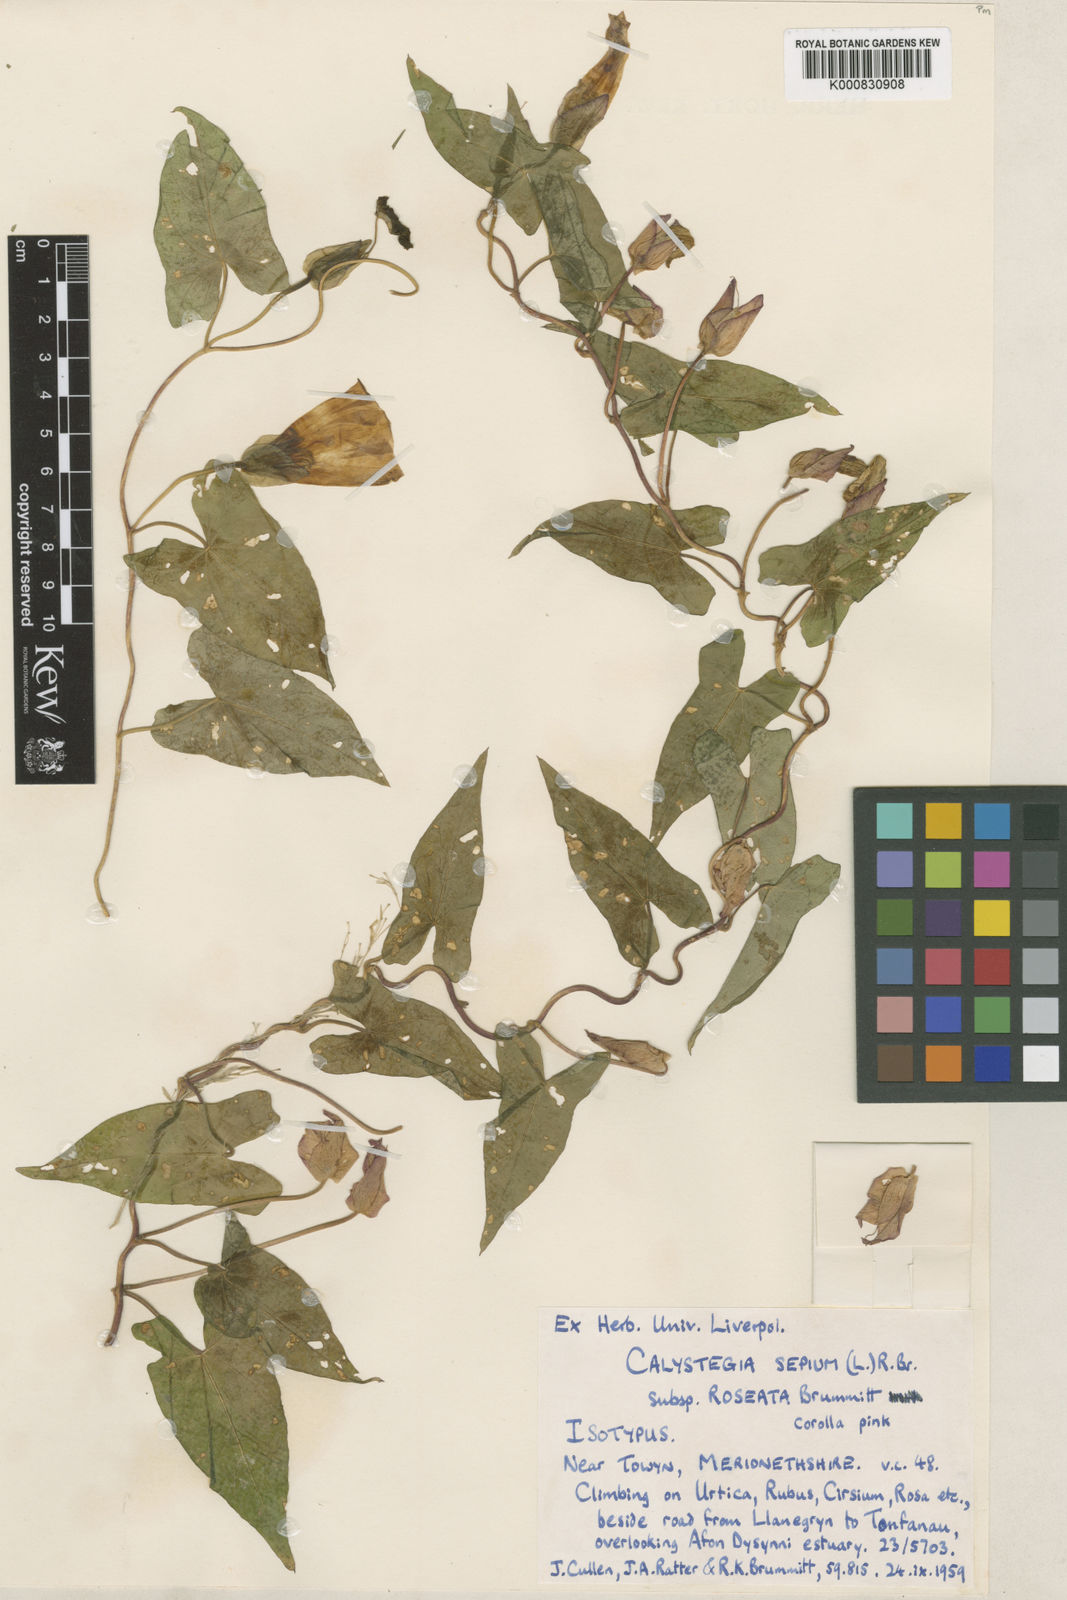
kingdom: Plantae
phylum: Tracheophyta
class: Magnoliopsida
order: Solanales
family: Convolvulaceae
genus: Calystegia
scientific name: Calystegia sepium
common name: Hedge bindweed
